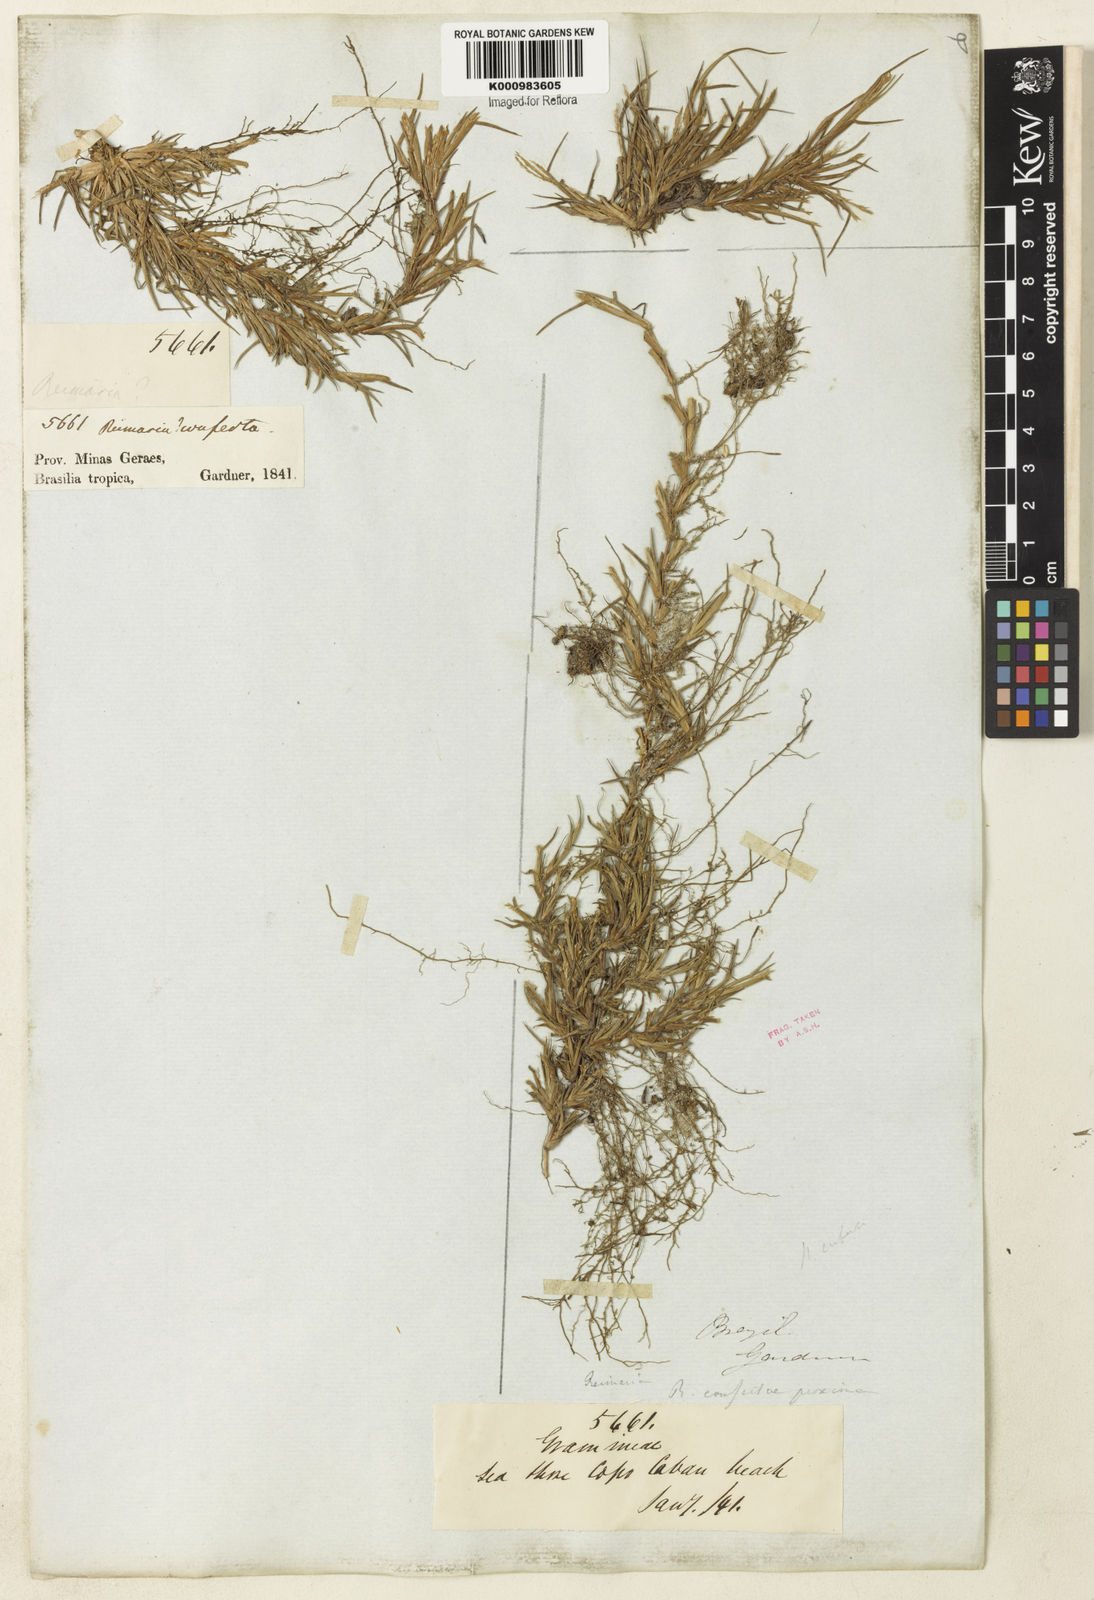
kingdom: Plantae
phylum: Tracheophyta
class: Liliopsida
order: Poales
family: Poaceae
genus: Paspalum
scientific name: Paspalum
